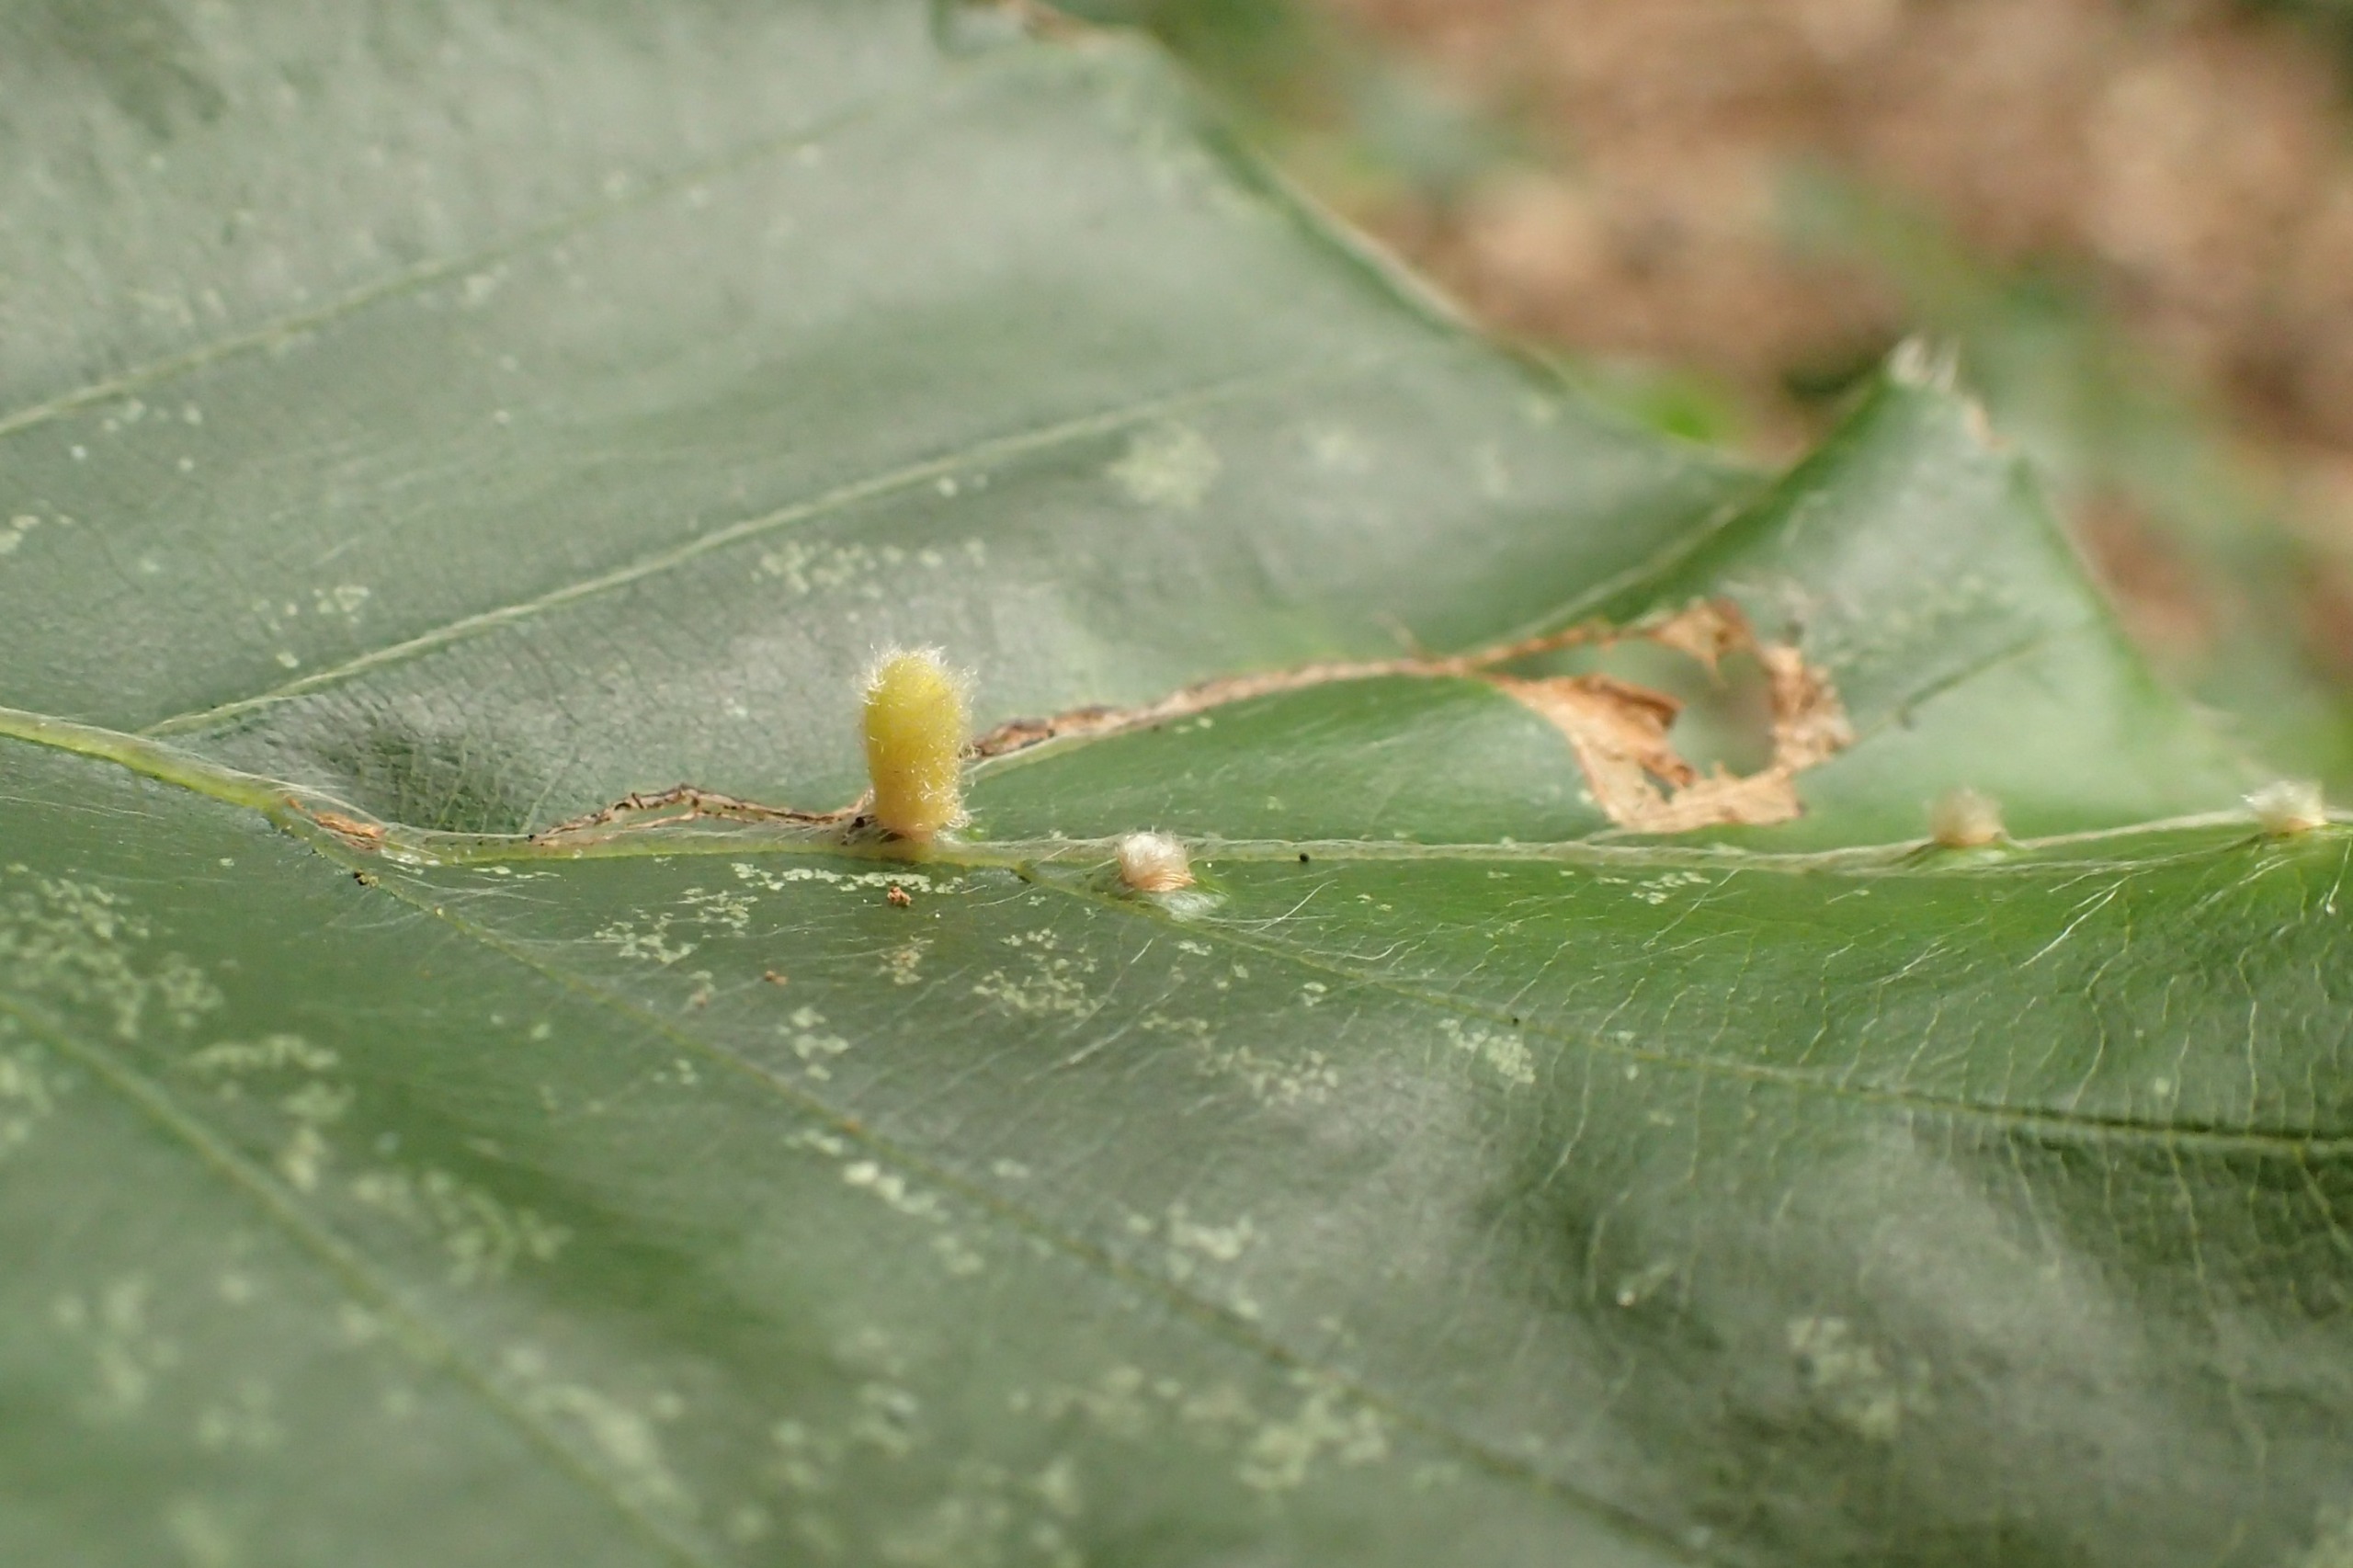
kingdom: Animalia
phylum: Arthropoda
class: Insecta
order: Diptera
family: Cecidomyiidae
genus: Hartigiola
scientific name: Hartigiola annulipes
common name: Skovtroldegalmyg
